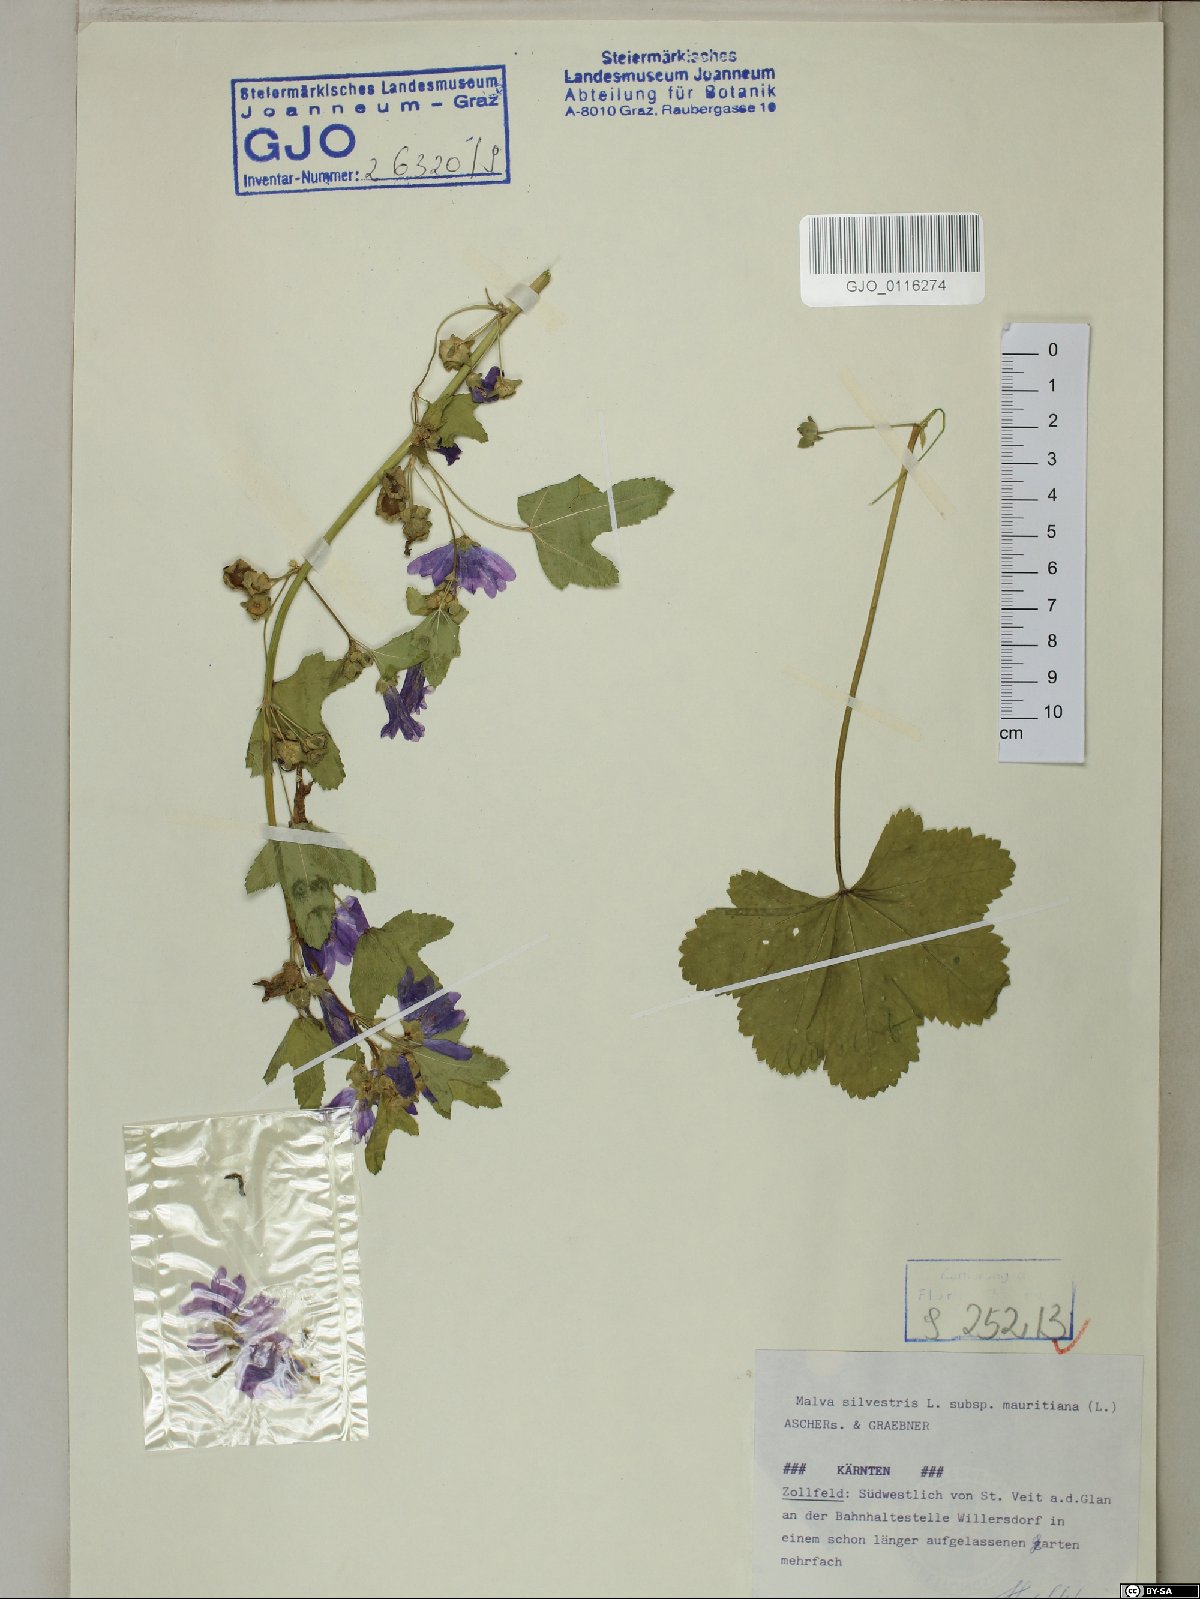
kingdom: Plantae
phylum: Tracheophyta
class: Magnoliopsida
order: Malvales
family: Malvaceae
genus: Malva
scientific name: Malva sylvestris
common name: Common mallow
